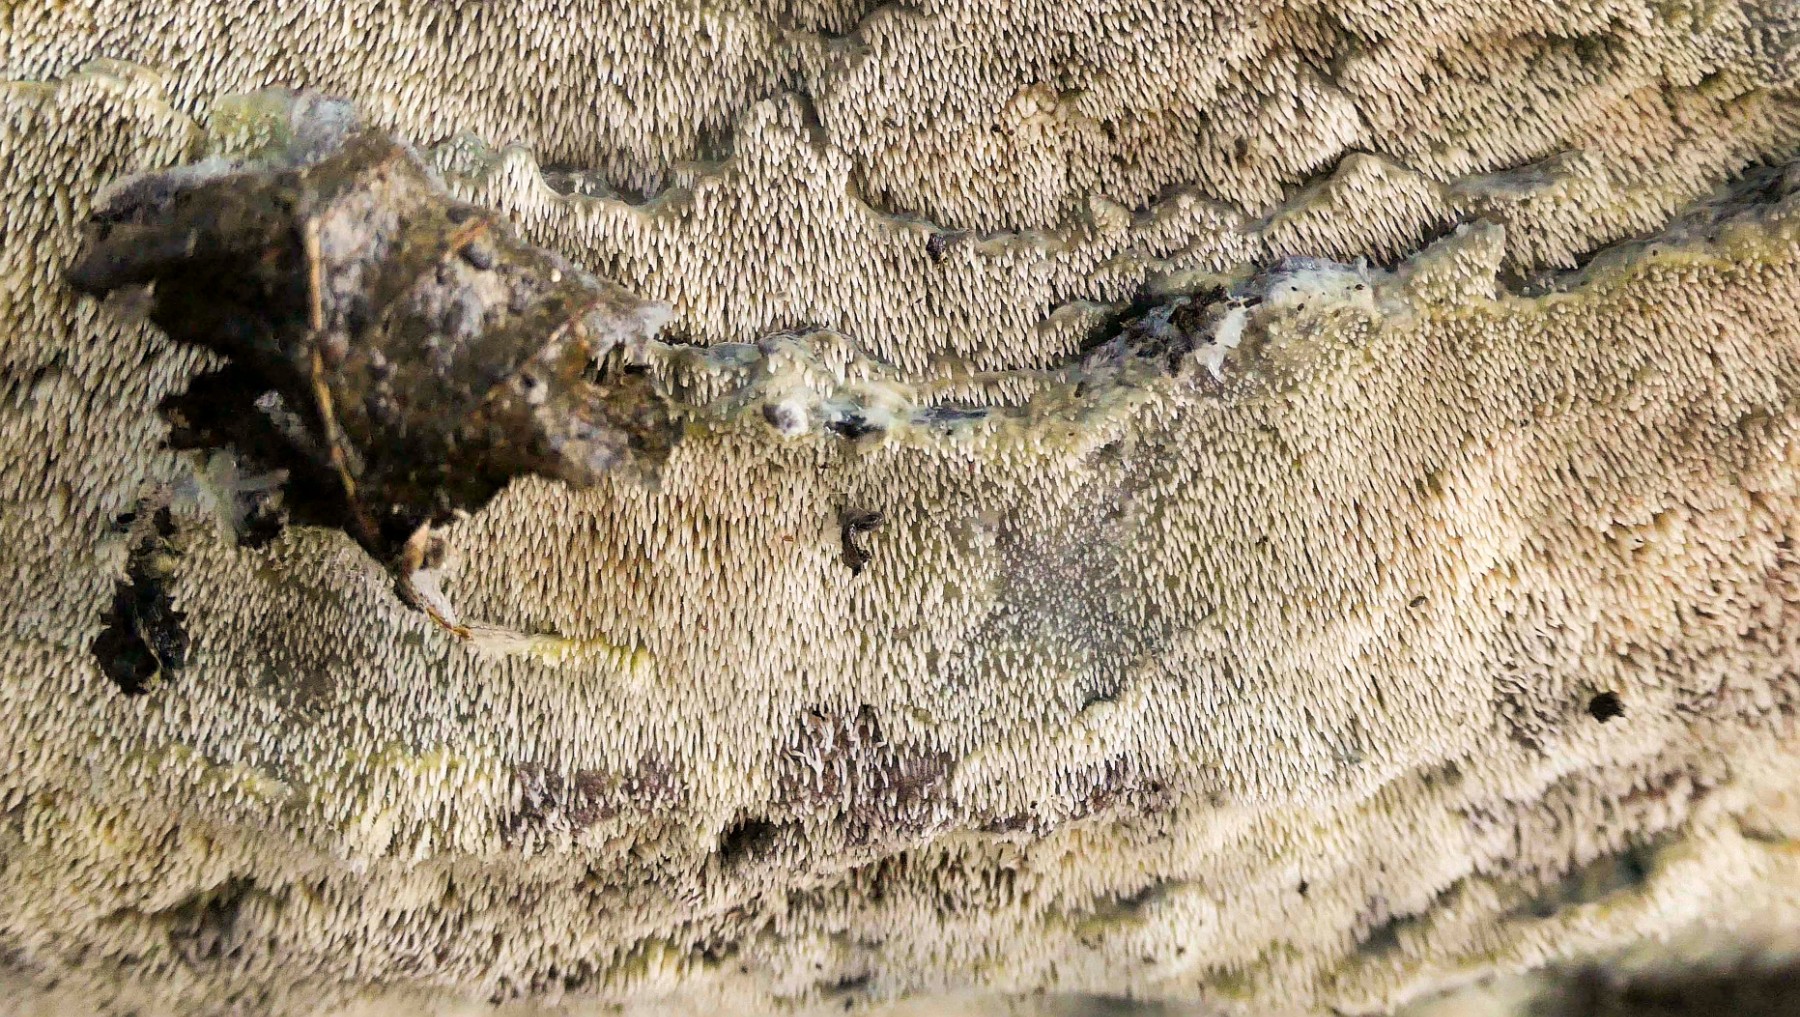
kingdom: Fungi
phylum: Basidiomycota
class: Agaricomycetes
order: Polyporales
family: Meruliaceae
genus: Mycoacia
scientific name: Mycoacia uda
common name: citrongul vokspig
